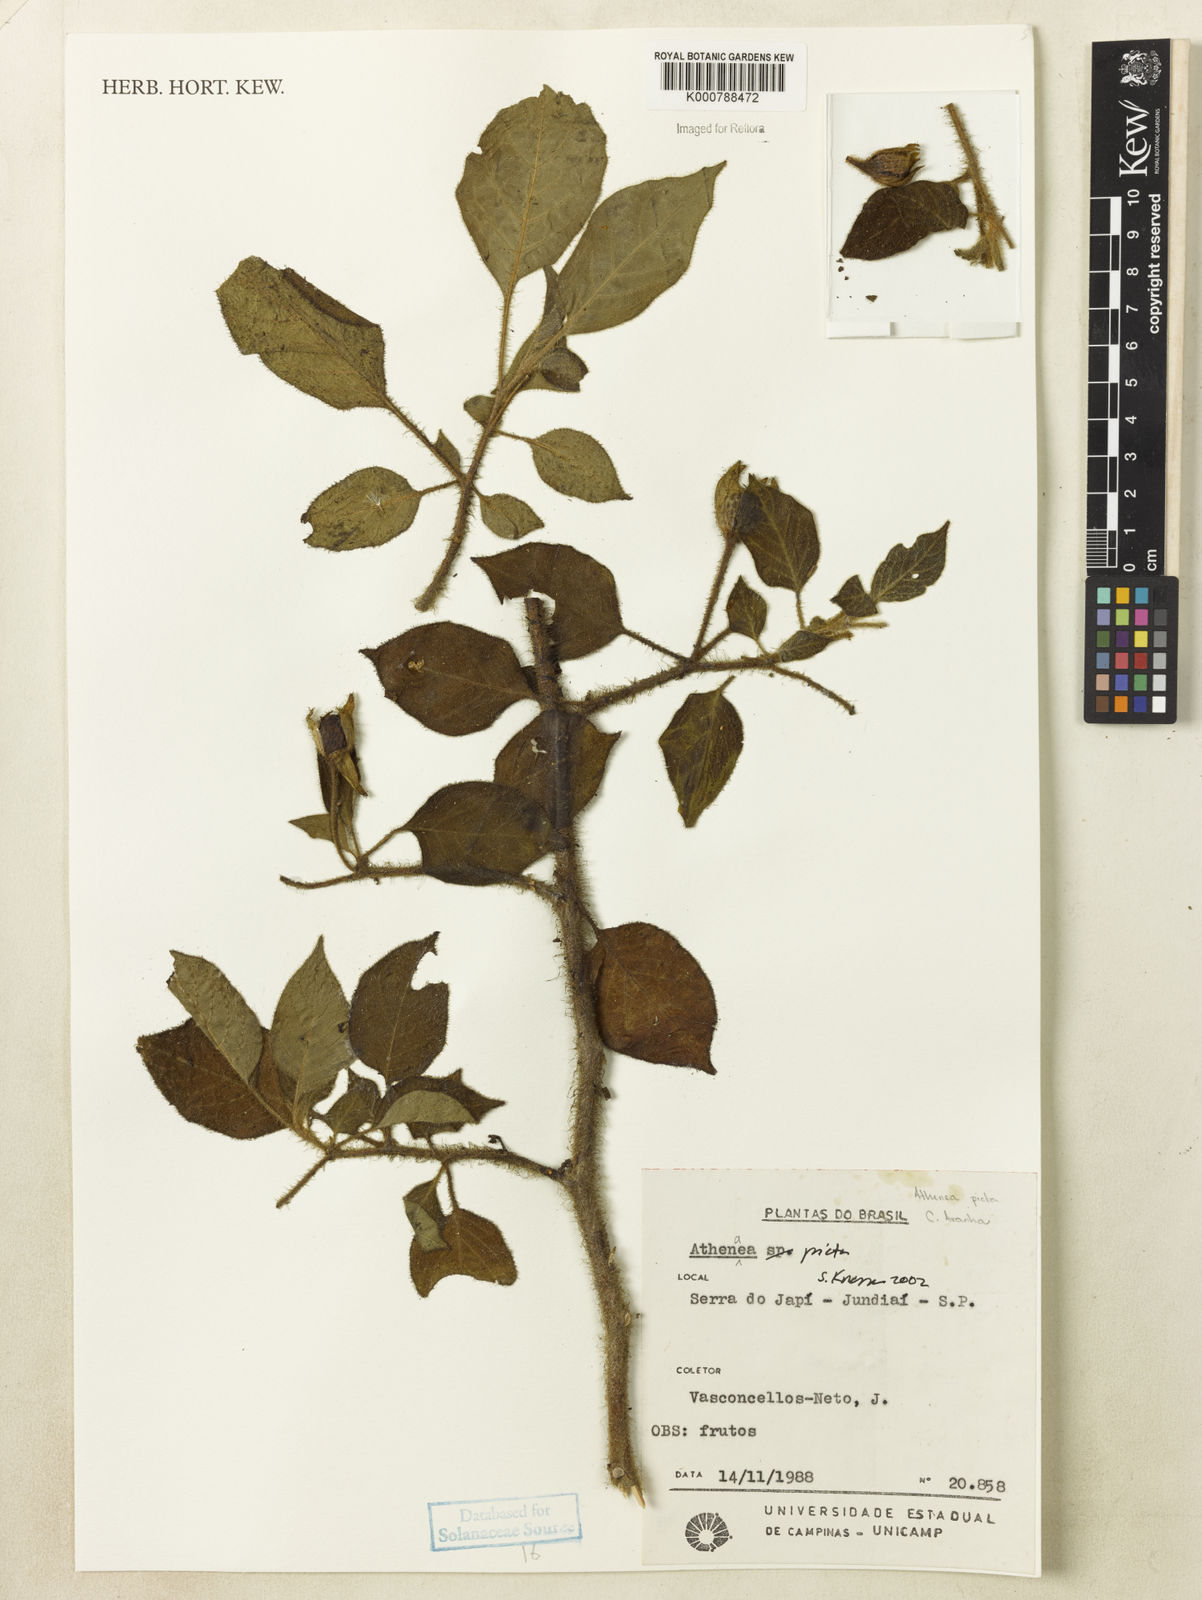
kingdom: Plantae
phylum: Tracheophyta
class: Magnoliopsida
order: Solanales
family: Solanaceae
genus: Athenaea
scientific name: Athenaea picta
